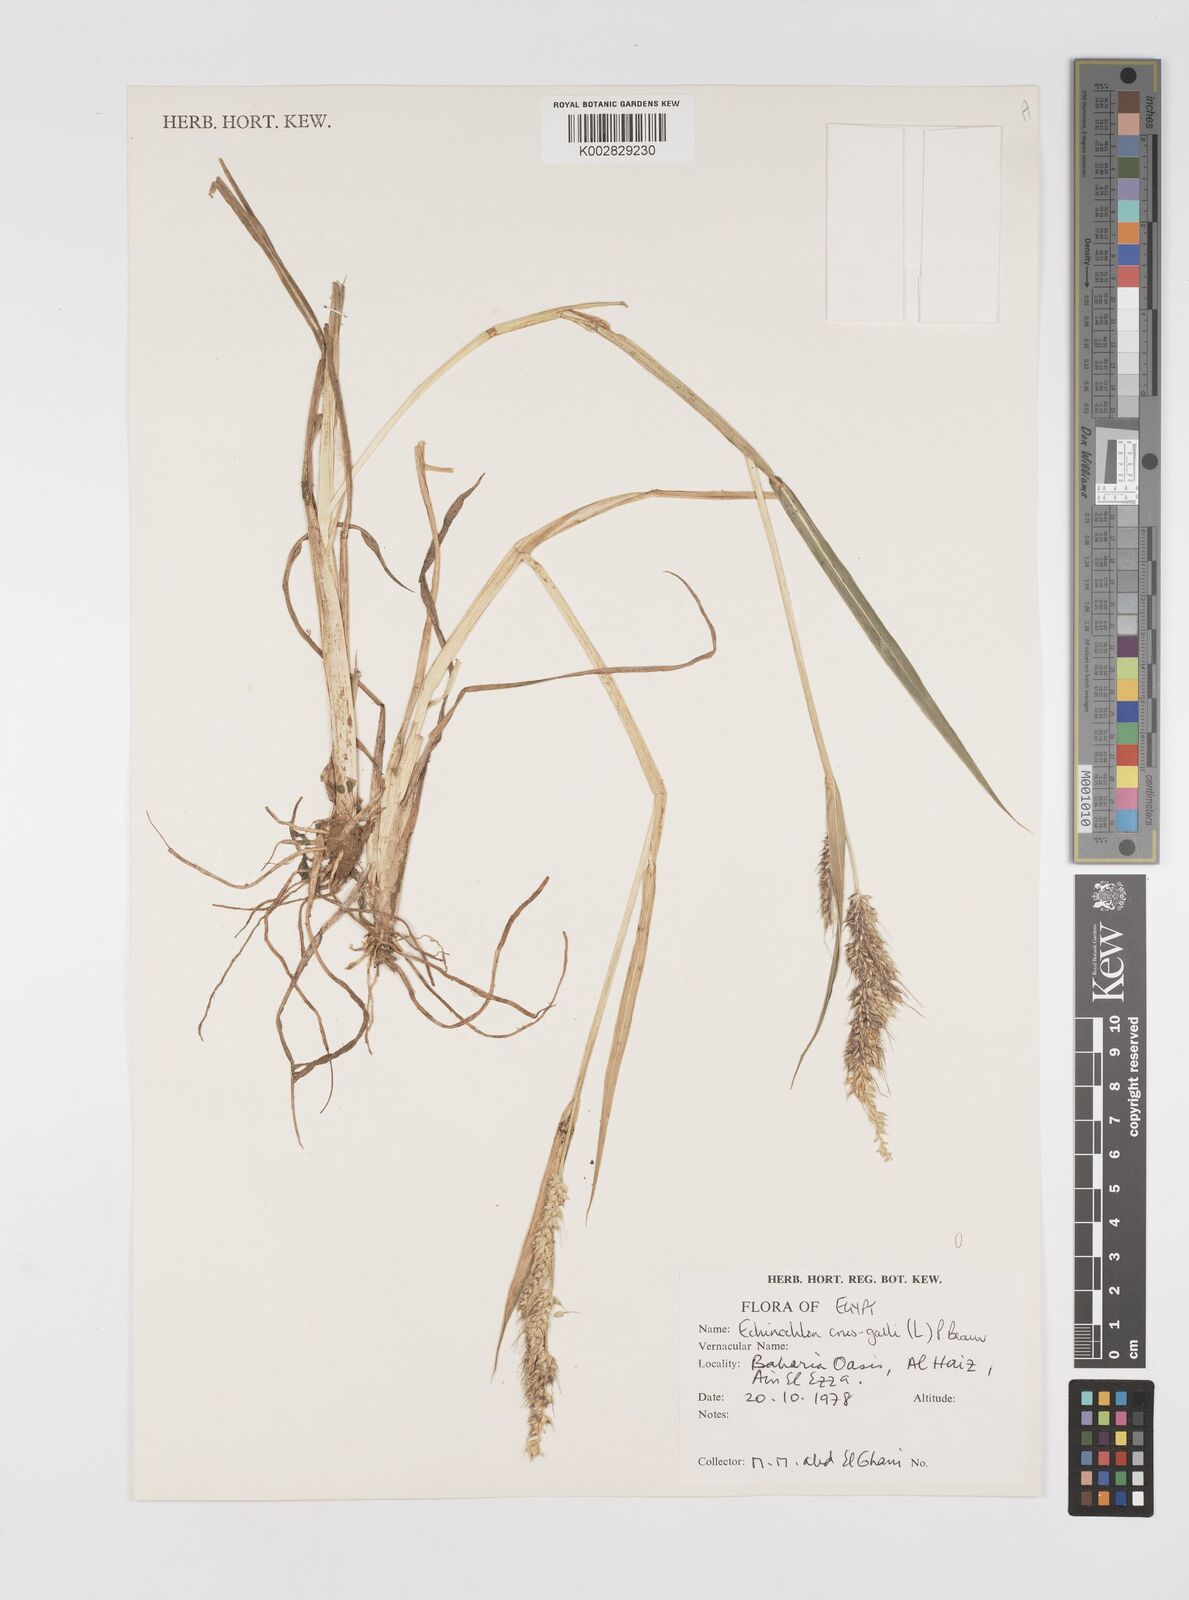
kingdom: Plantae
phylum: Tracheophyta
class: Liliopsida
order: Poales
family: Poaceae
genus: Echinochloa
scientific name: Echinochloa crus-galli
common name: Cockspur
